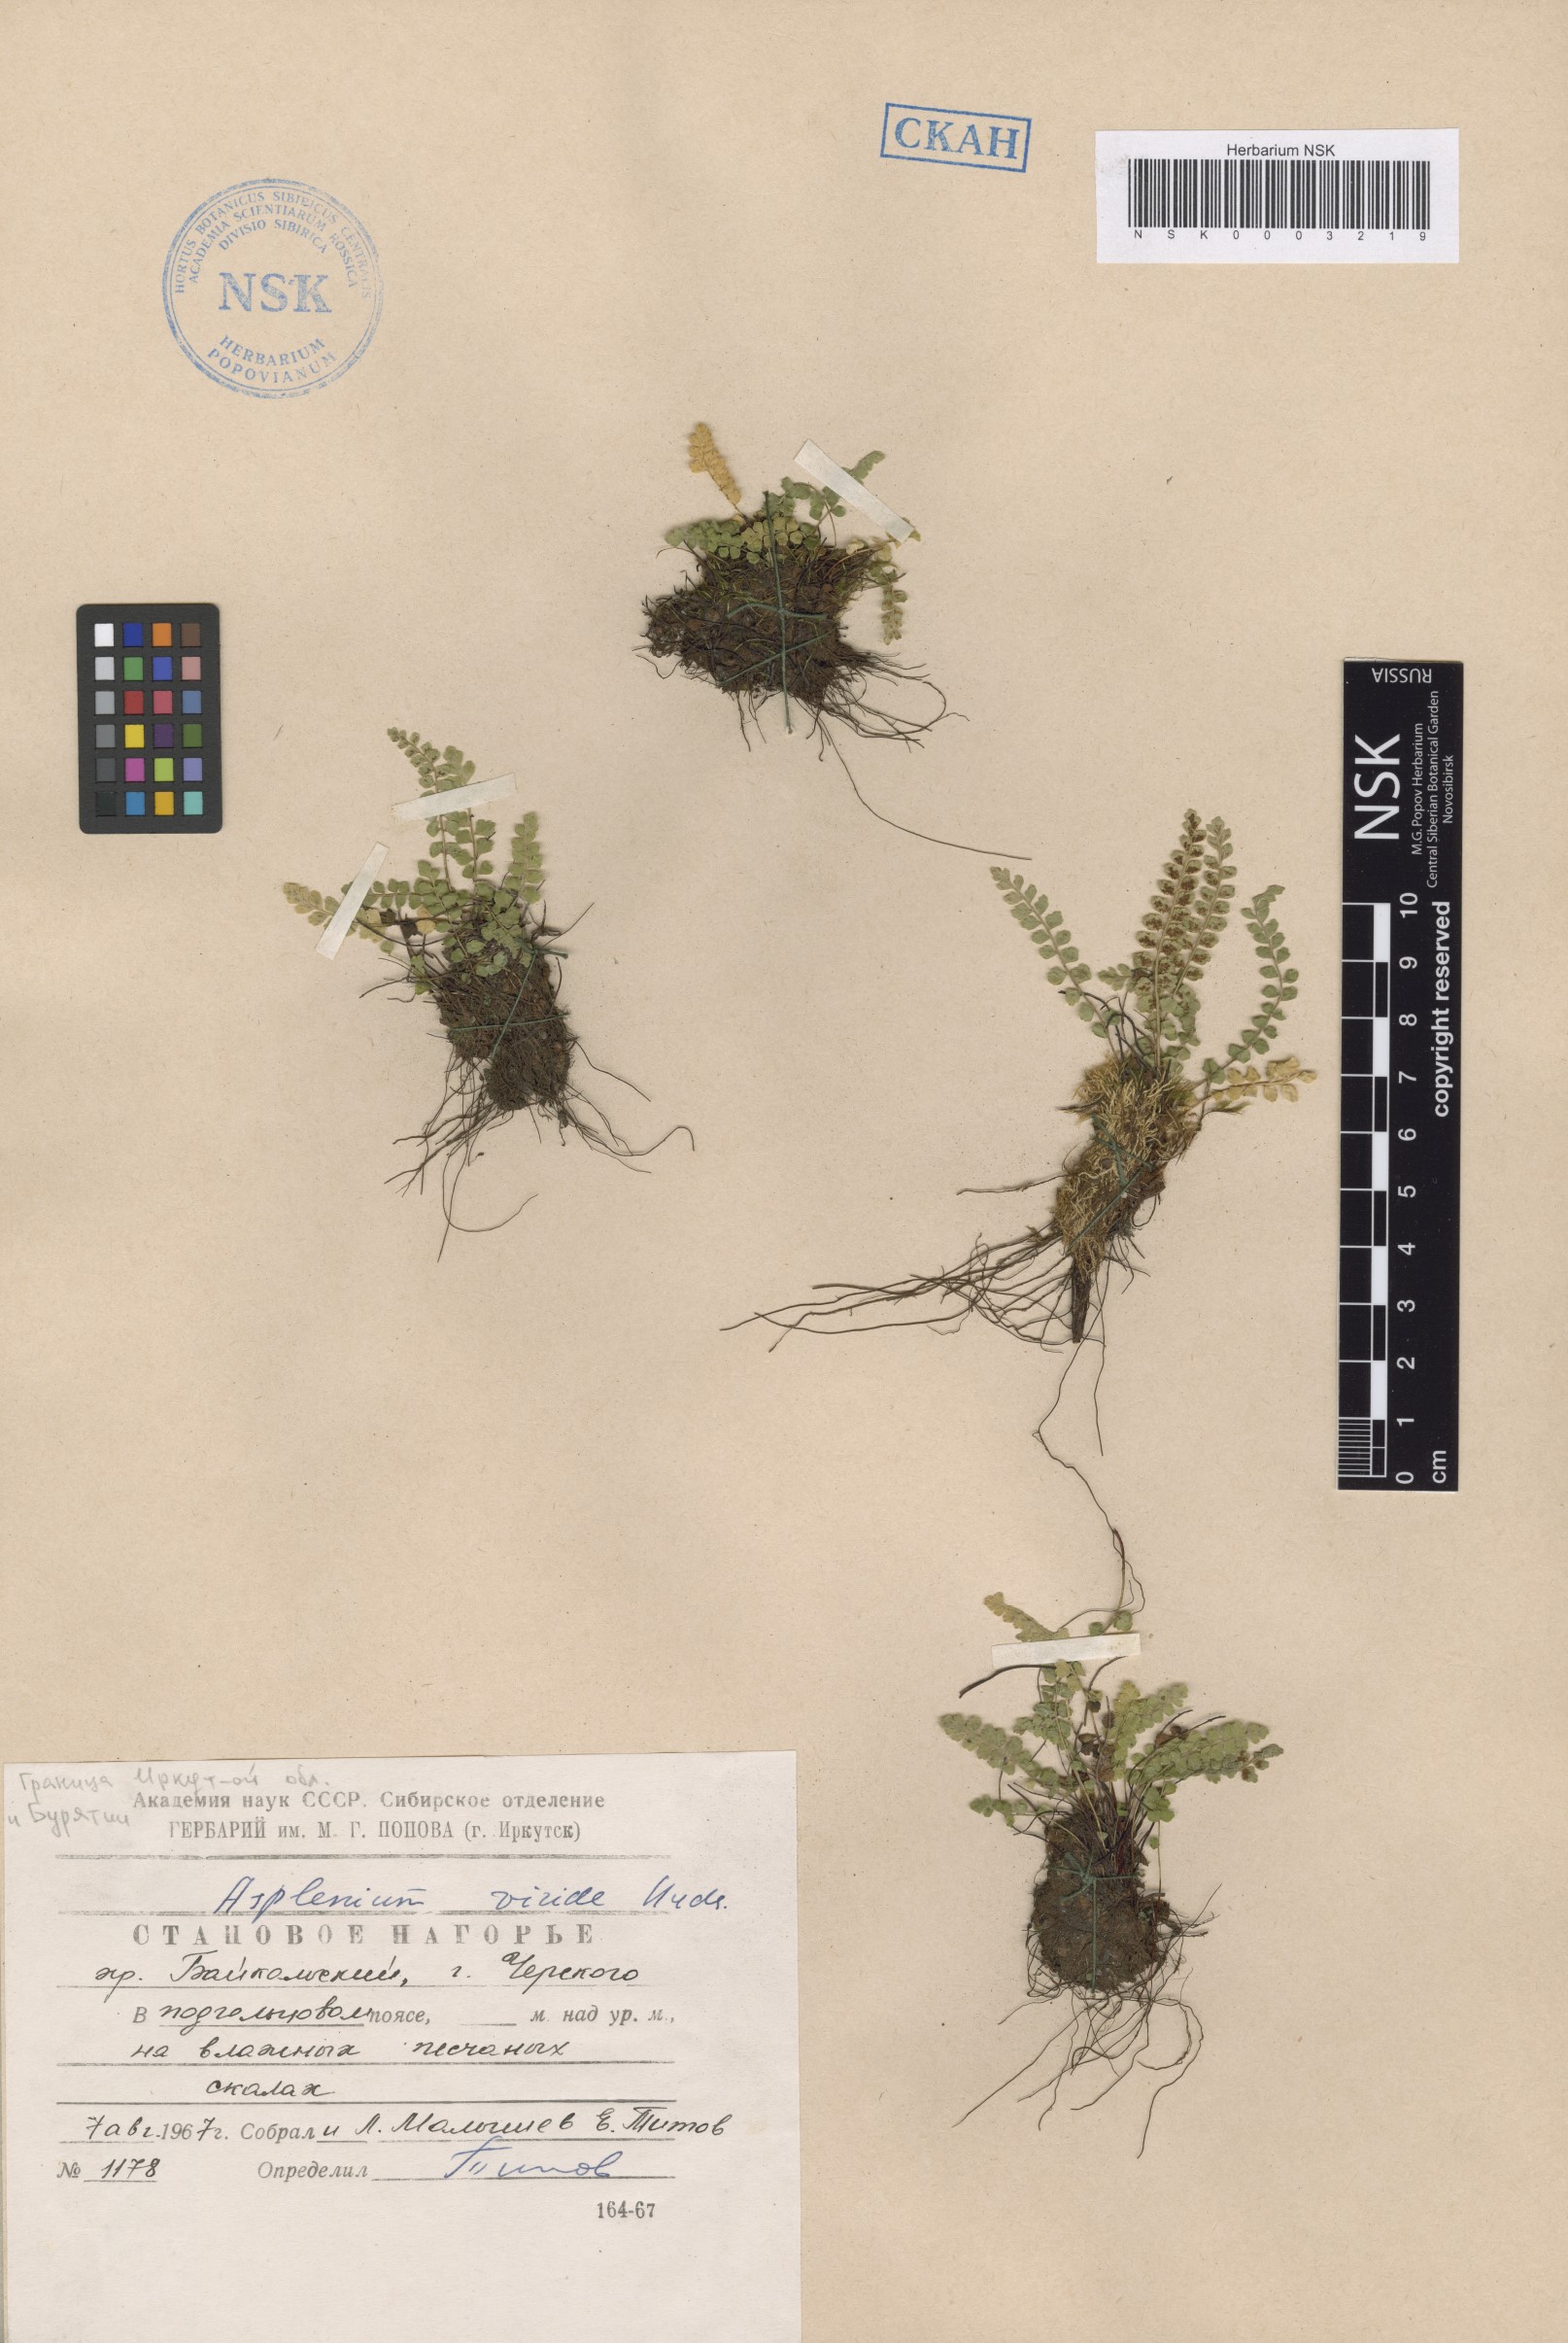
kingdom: Plantae
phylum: Tracheophyta
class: Polypodiopsida
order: Polypodiales
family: Aspleniaceae
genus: Asplenium
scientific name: Asplenium viride
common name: Green spleenwort
